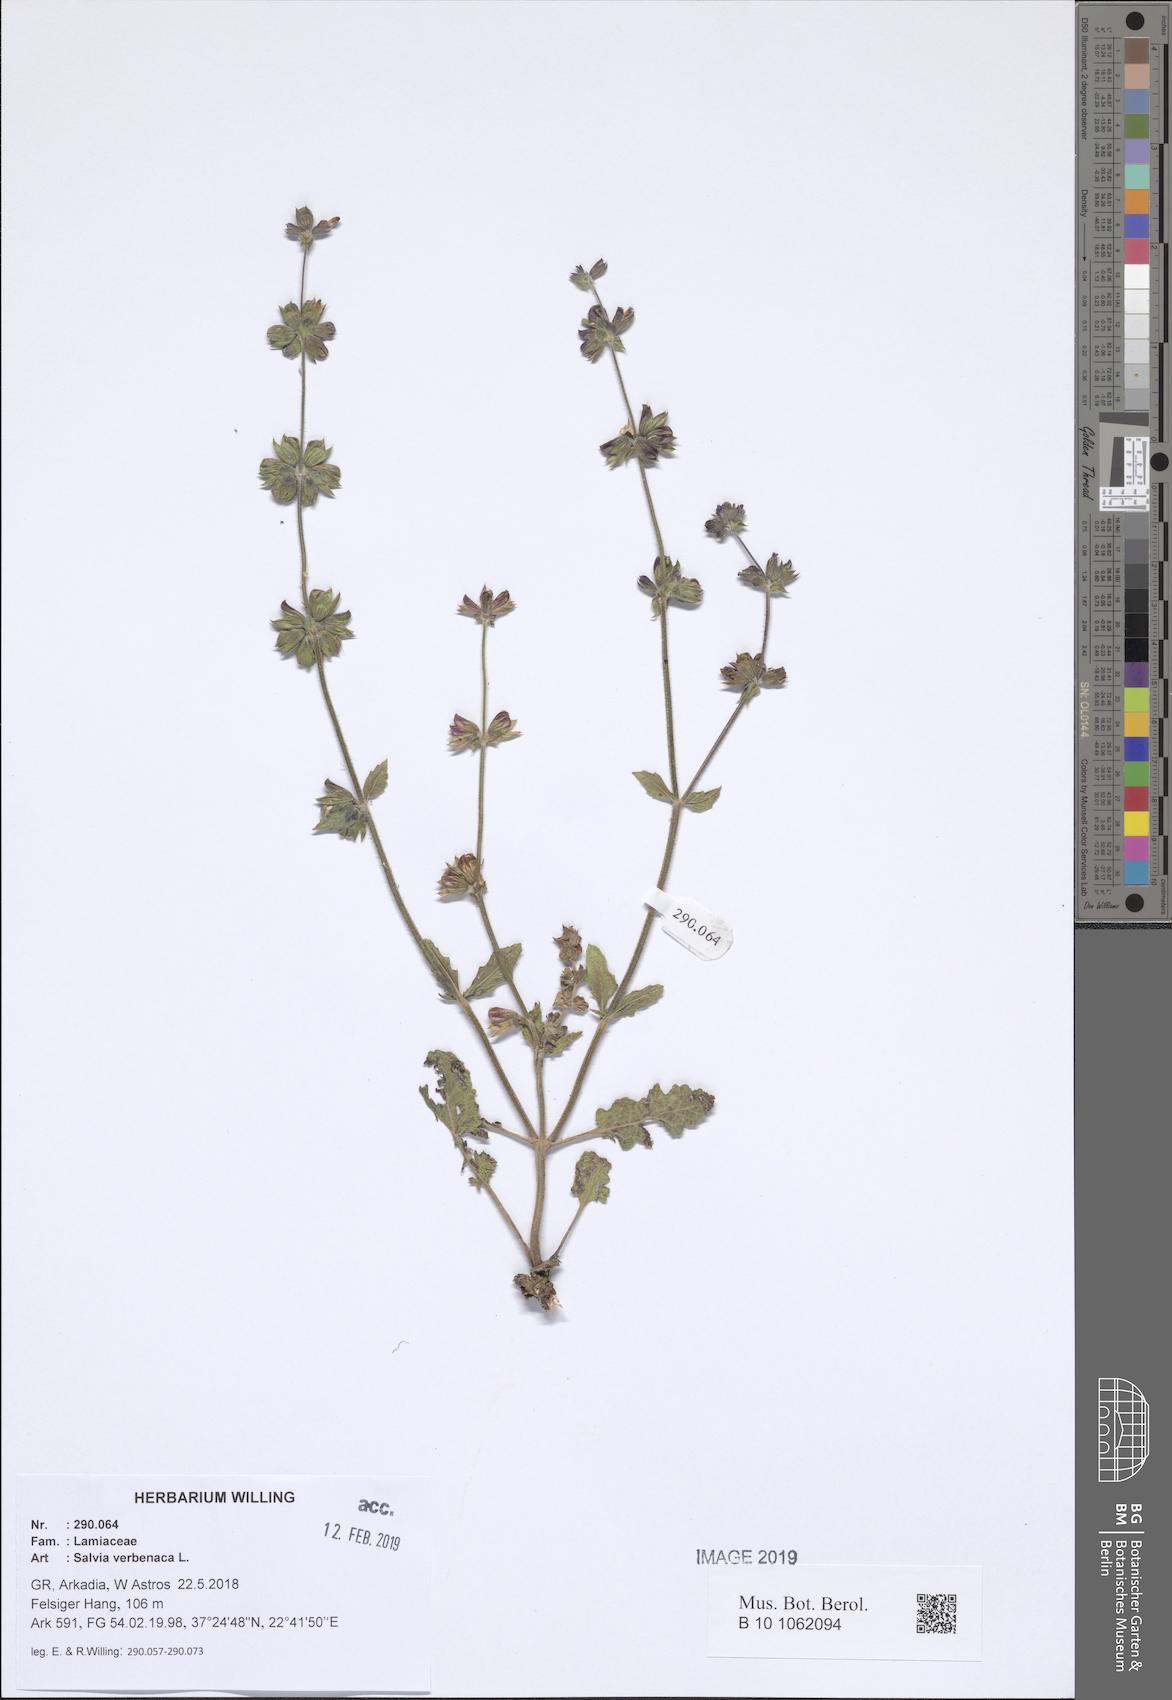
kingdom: Plantae
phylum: Tracheophyta
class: Magnoliopsida
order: Lamiales
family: Lamiaceae
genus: Salvia
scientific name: Salvia verbenaca
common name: Wild clary
